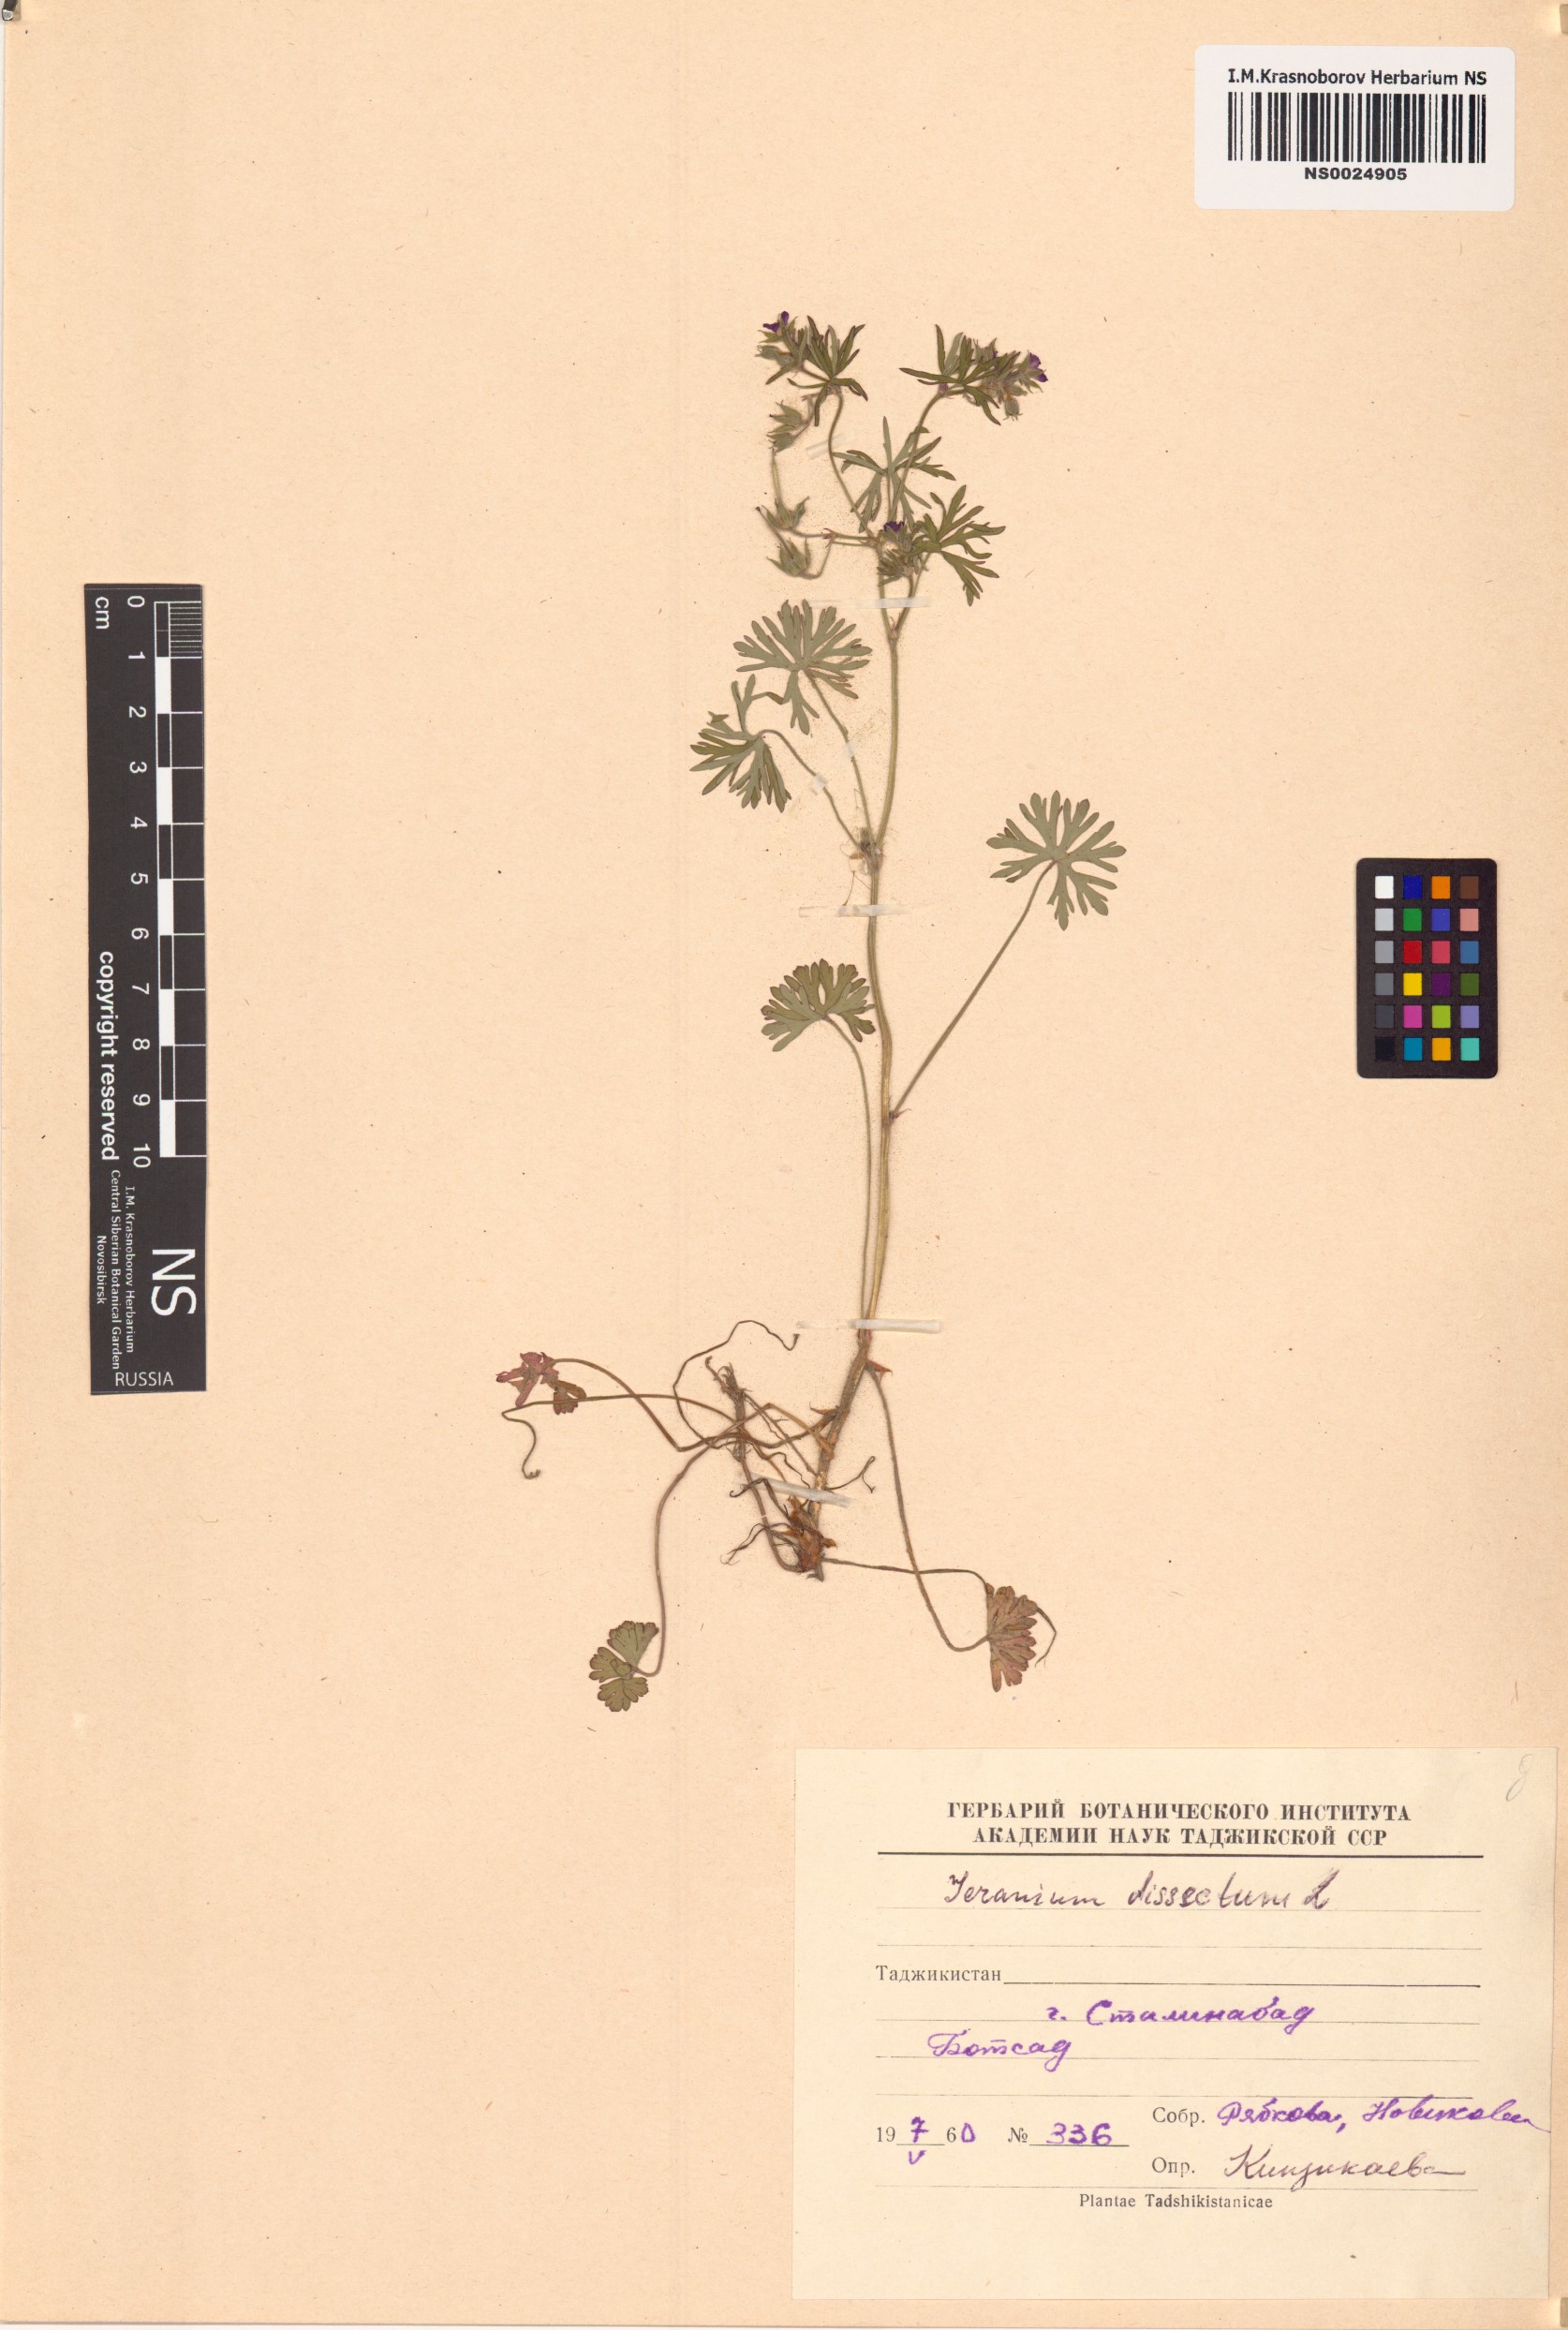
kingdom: Plantae
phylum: Tracheophyta
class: Magnoliopsida
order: Geraniales
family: Geraniaceae
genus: Geranium
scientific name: Geranium dissectum
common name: Cut-leaved crane's-bill
